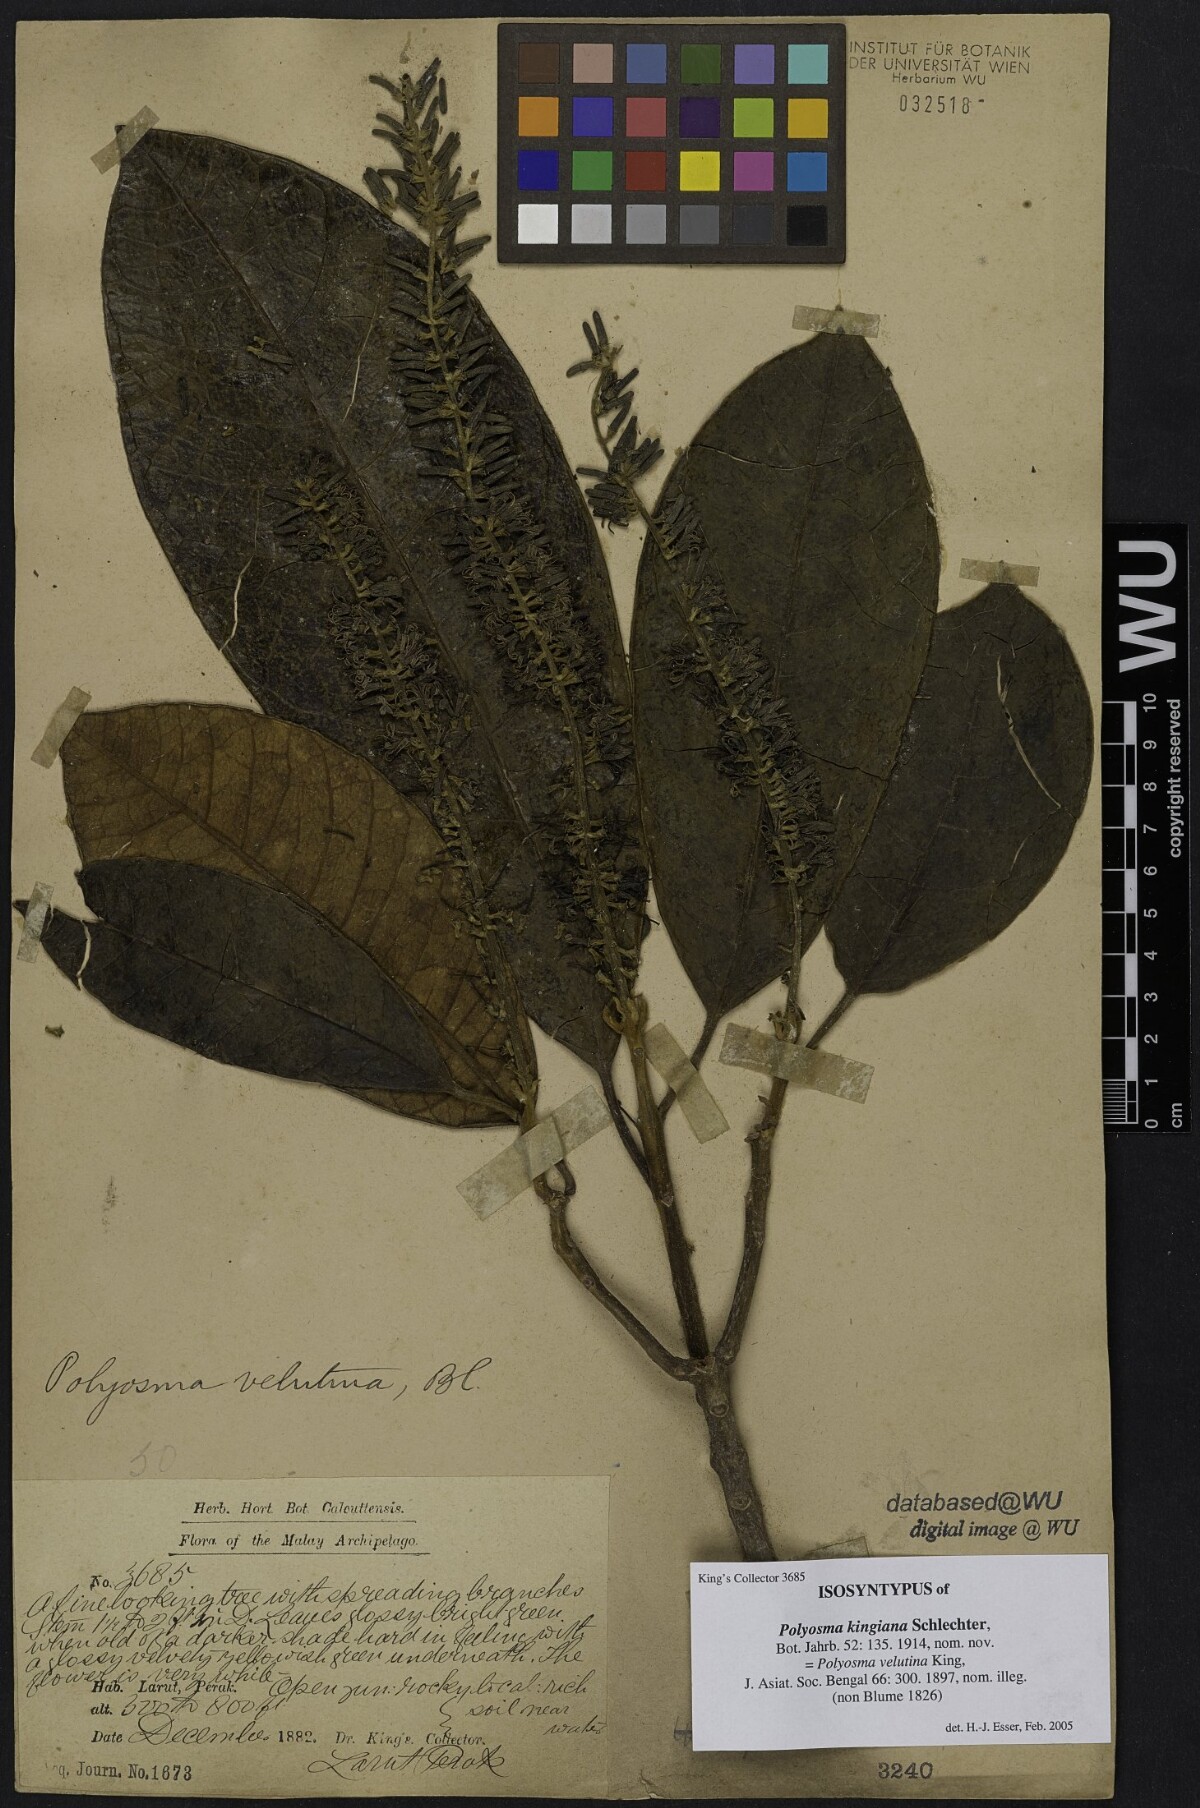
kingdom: Plantae
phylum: Tracheophyta
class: Magnoliopsida
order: Escalloniales
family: Escalloniaceae
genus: Polyosma
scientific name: Polyosma kingiana
